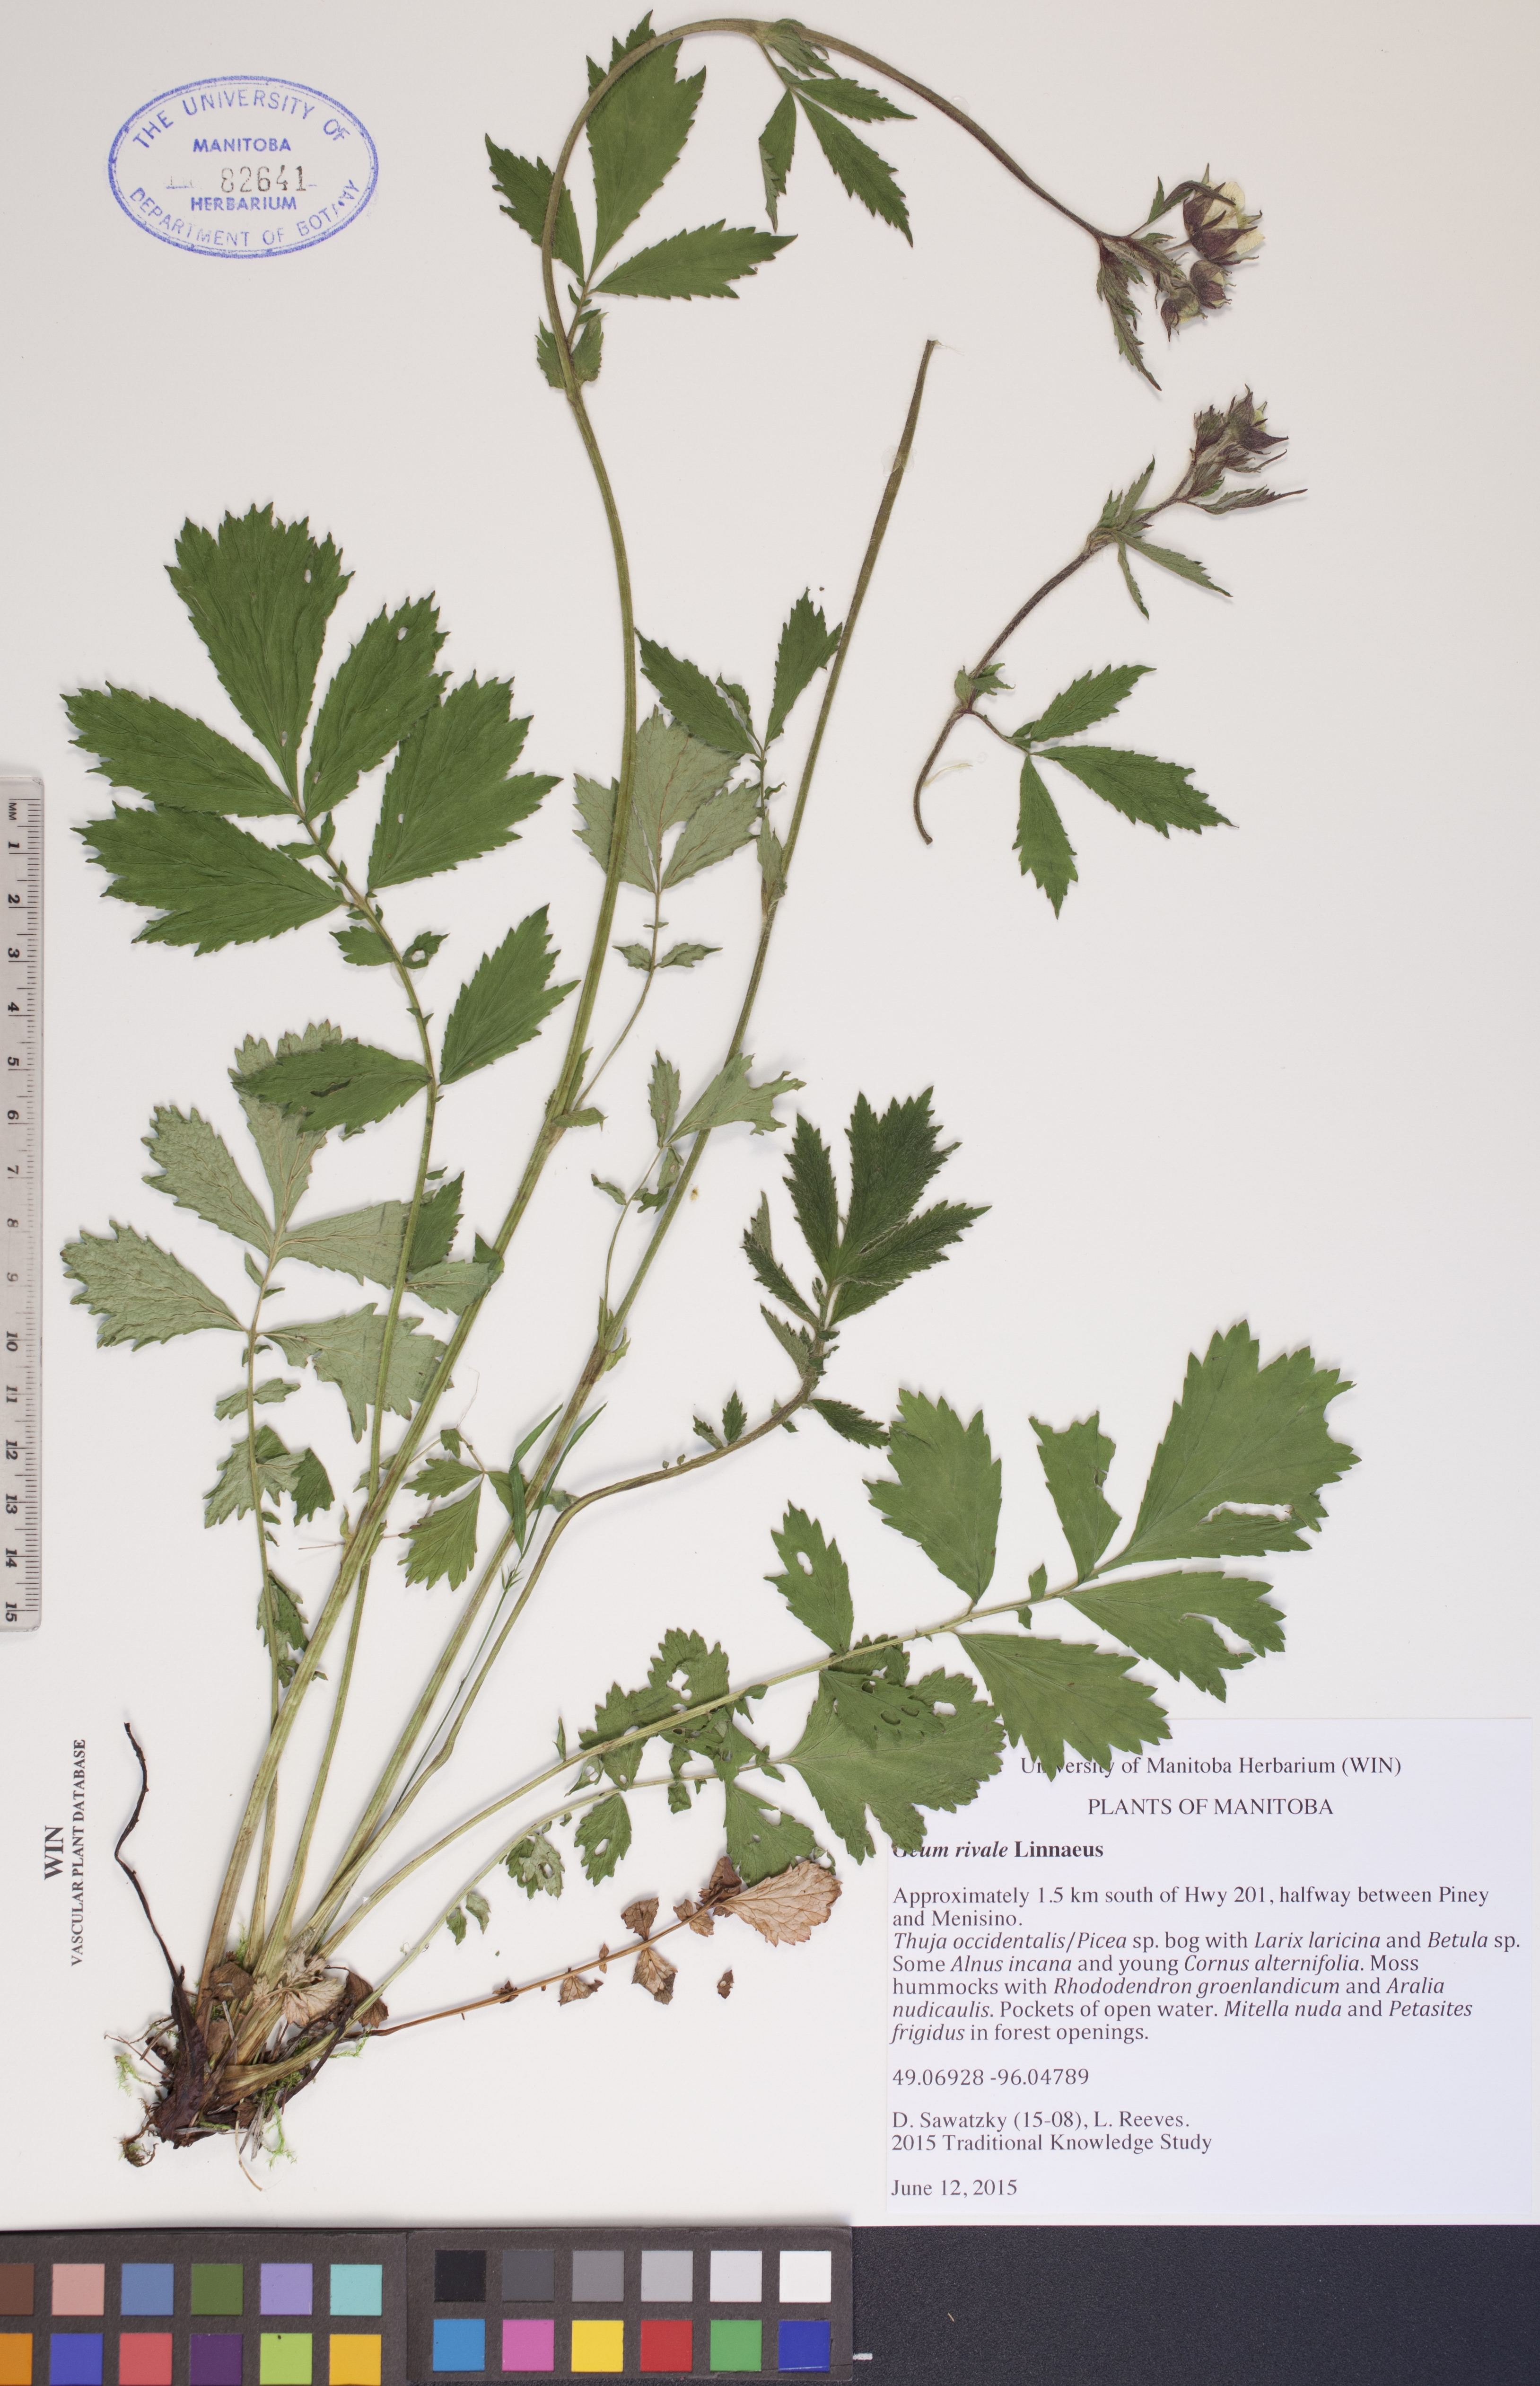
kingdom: Plantae
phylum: Tracheophyta
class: Magnoliopsida
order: Rosales
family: Rosaceae
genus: Geum
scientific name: Geum rivale
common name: Water avens
